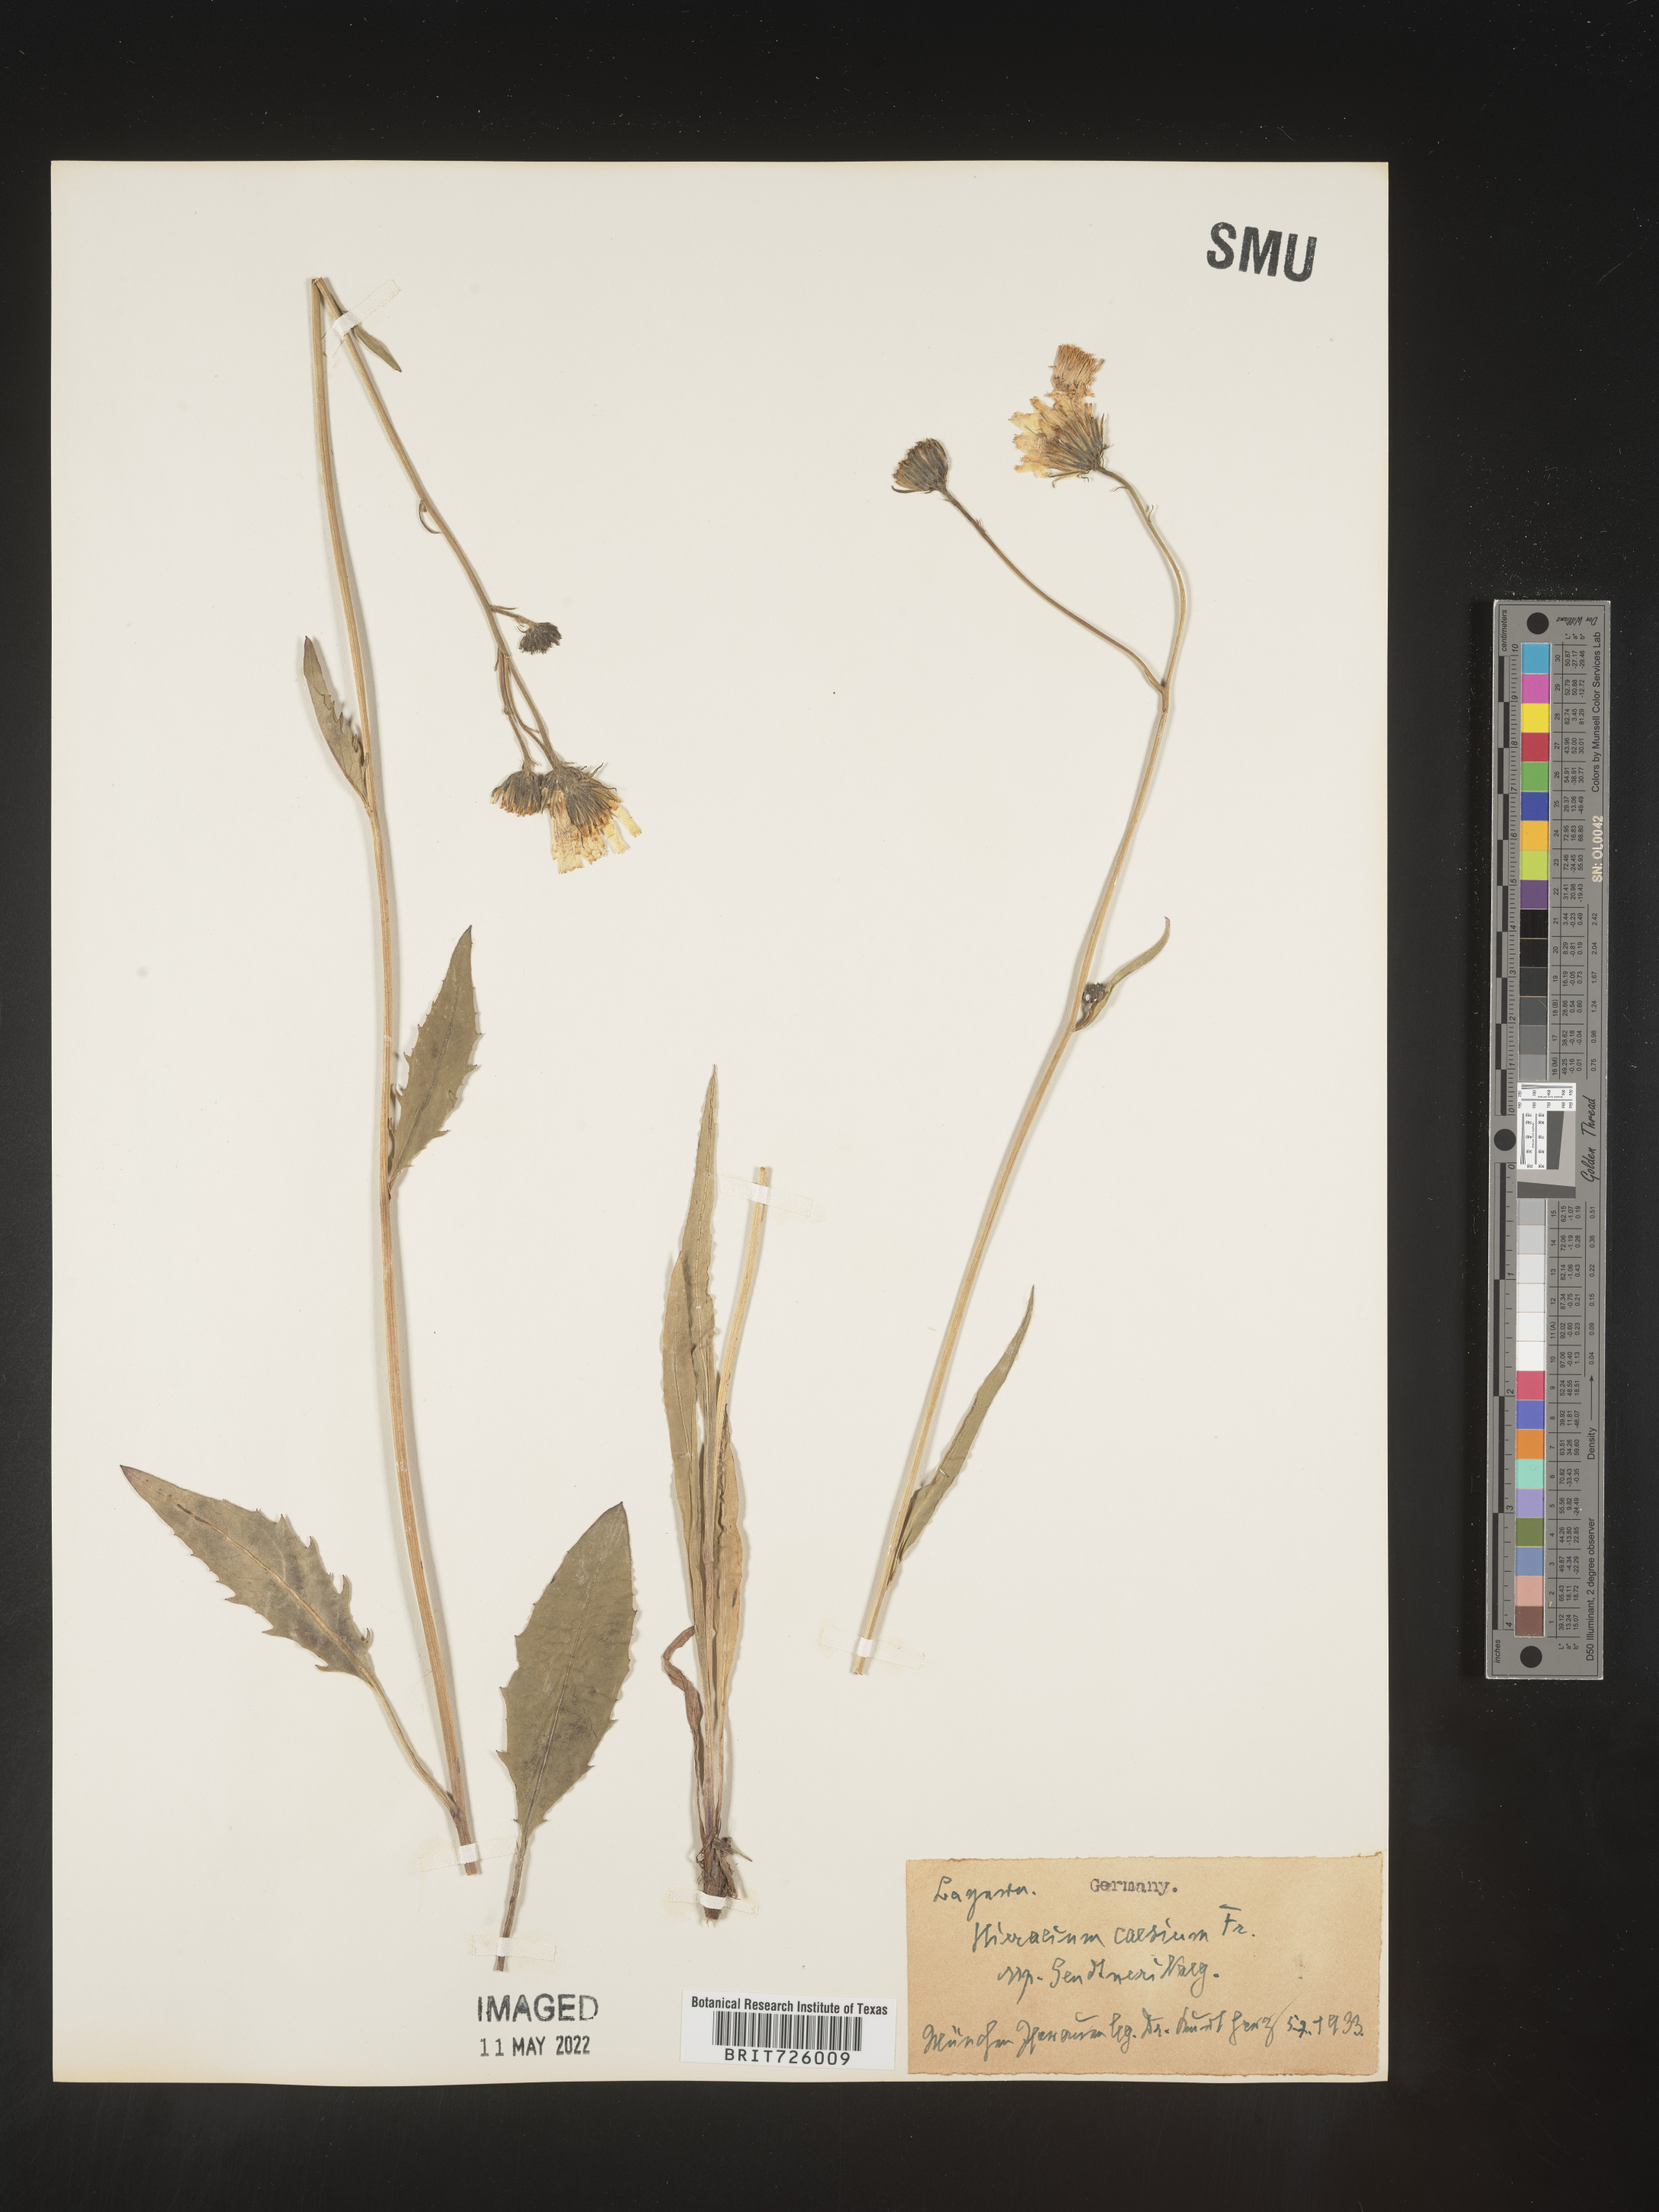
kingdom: Plantae
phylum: Tracheophyta
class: Magnoliopsida
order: Asterales
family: Asteraceae
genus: Hieracium
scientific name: Hieracium
